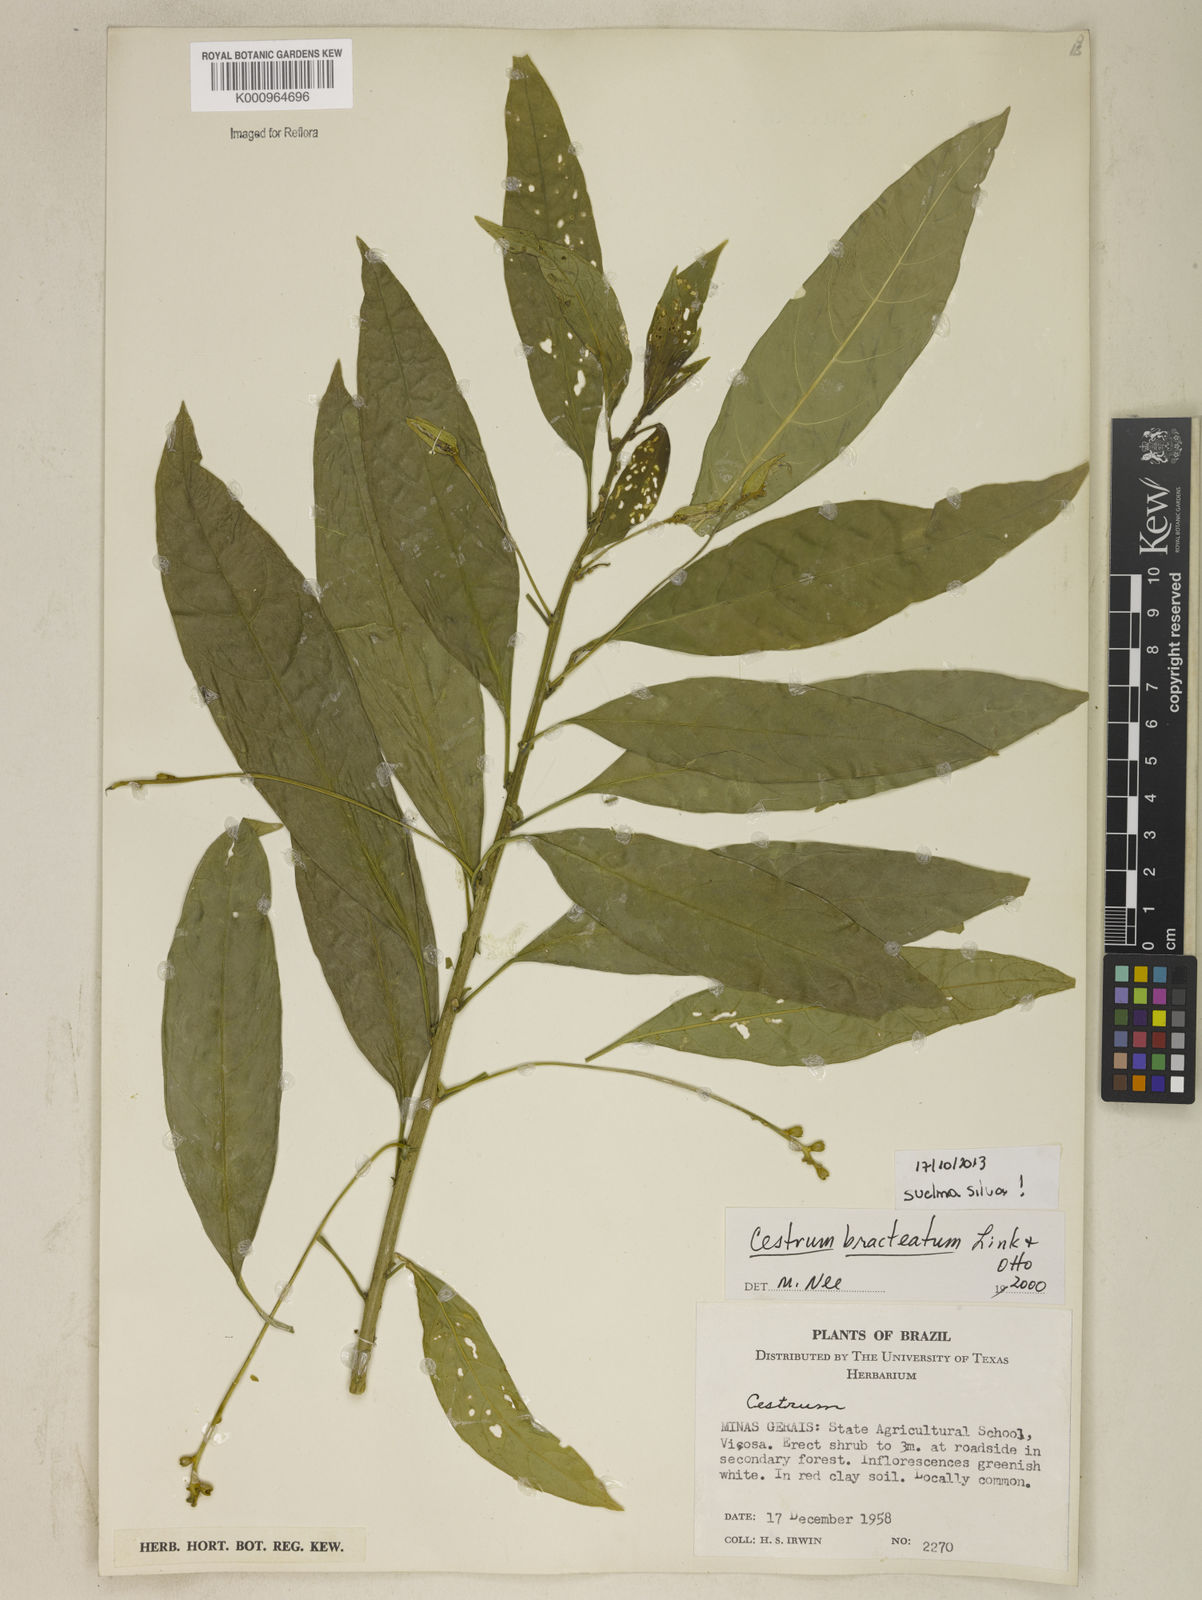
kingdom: Plantae
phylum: Tracheophyta
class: Magnoliopsida
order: Solanales
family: Solanaceae
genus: Cestrum
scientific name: Cestrum bracteatum
